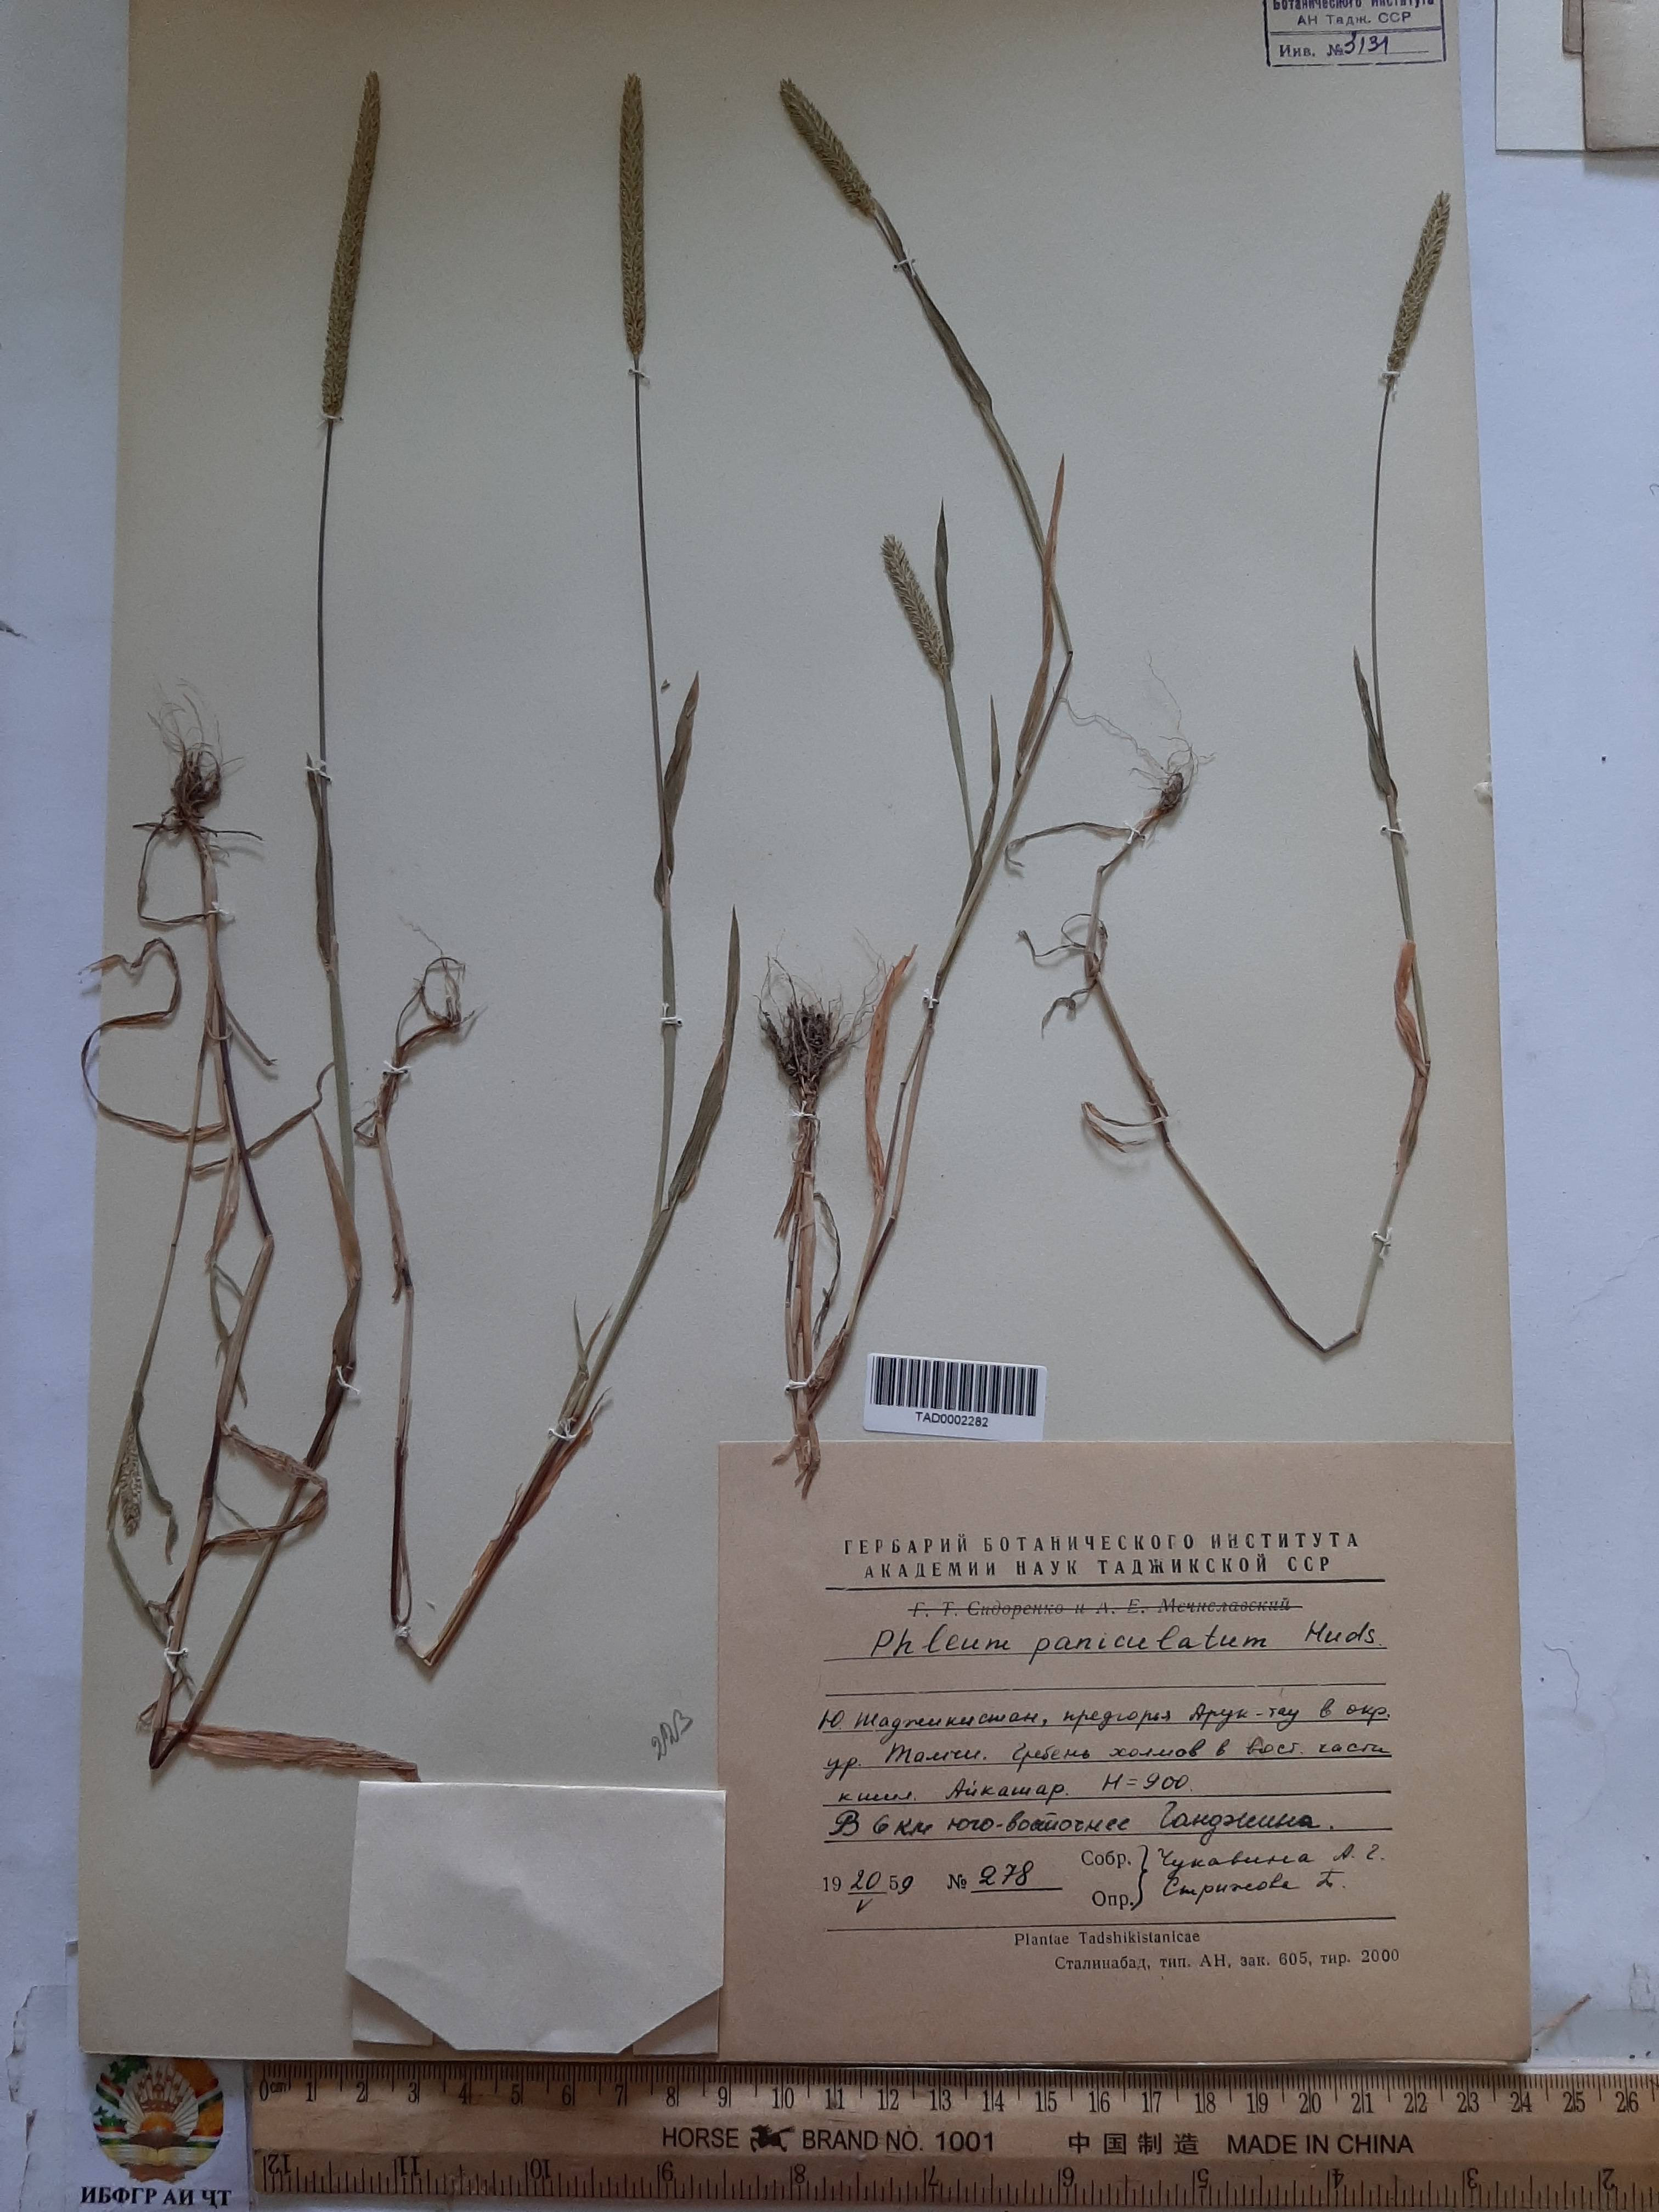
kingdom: Plantae
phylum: Tracheophyta
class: Liliopsida
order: Poales
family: Poaceae
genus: Phleum
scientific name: Phleum paniculatum
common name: British timothy
